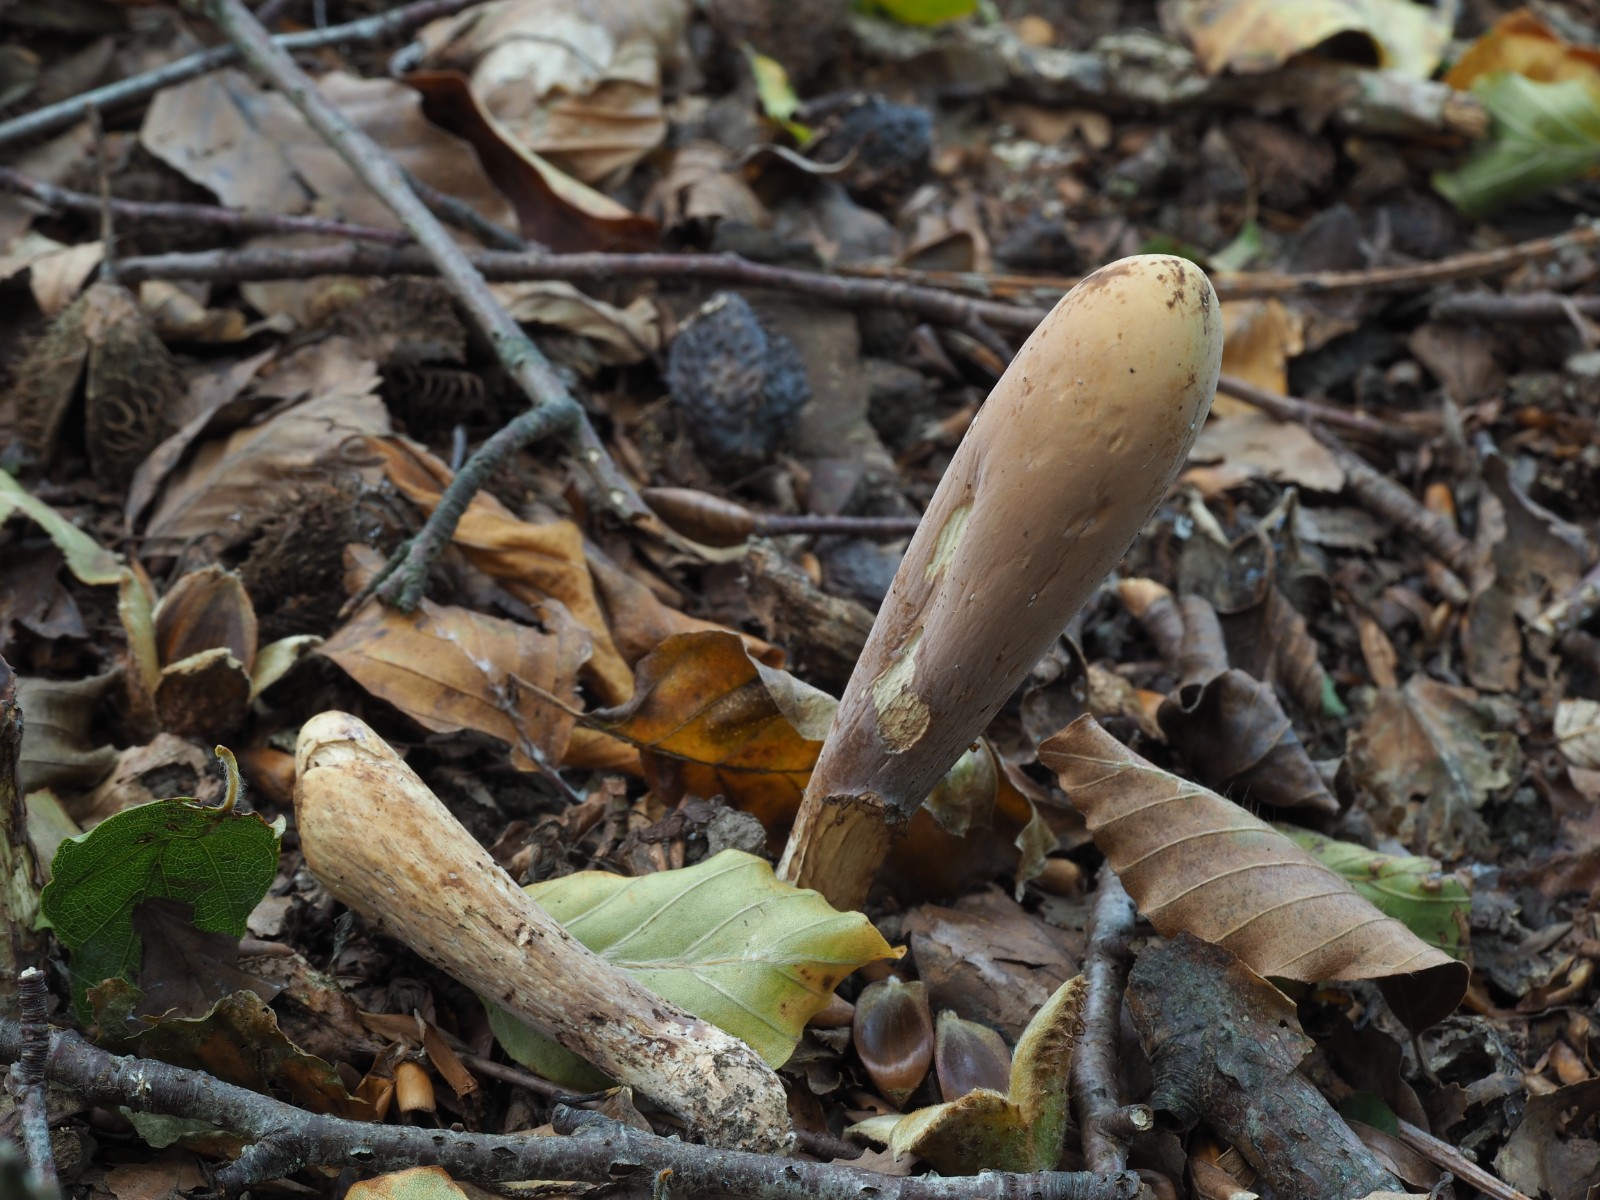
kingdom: Fungi
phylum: Basidiomycota
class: Agaricomycetes
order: Gomphales
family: Clavariadelphaceae
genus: Clavariadelphus
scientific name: Clavariadelphus pistillaris
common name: herkules-kæmpekølle
